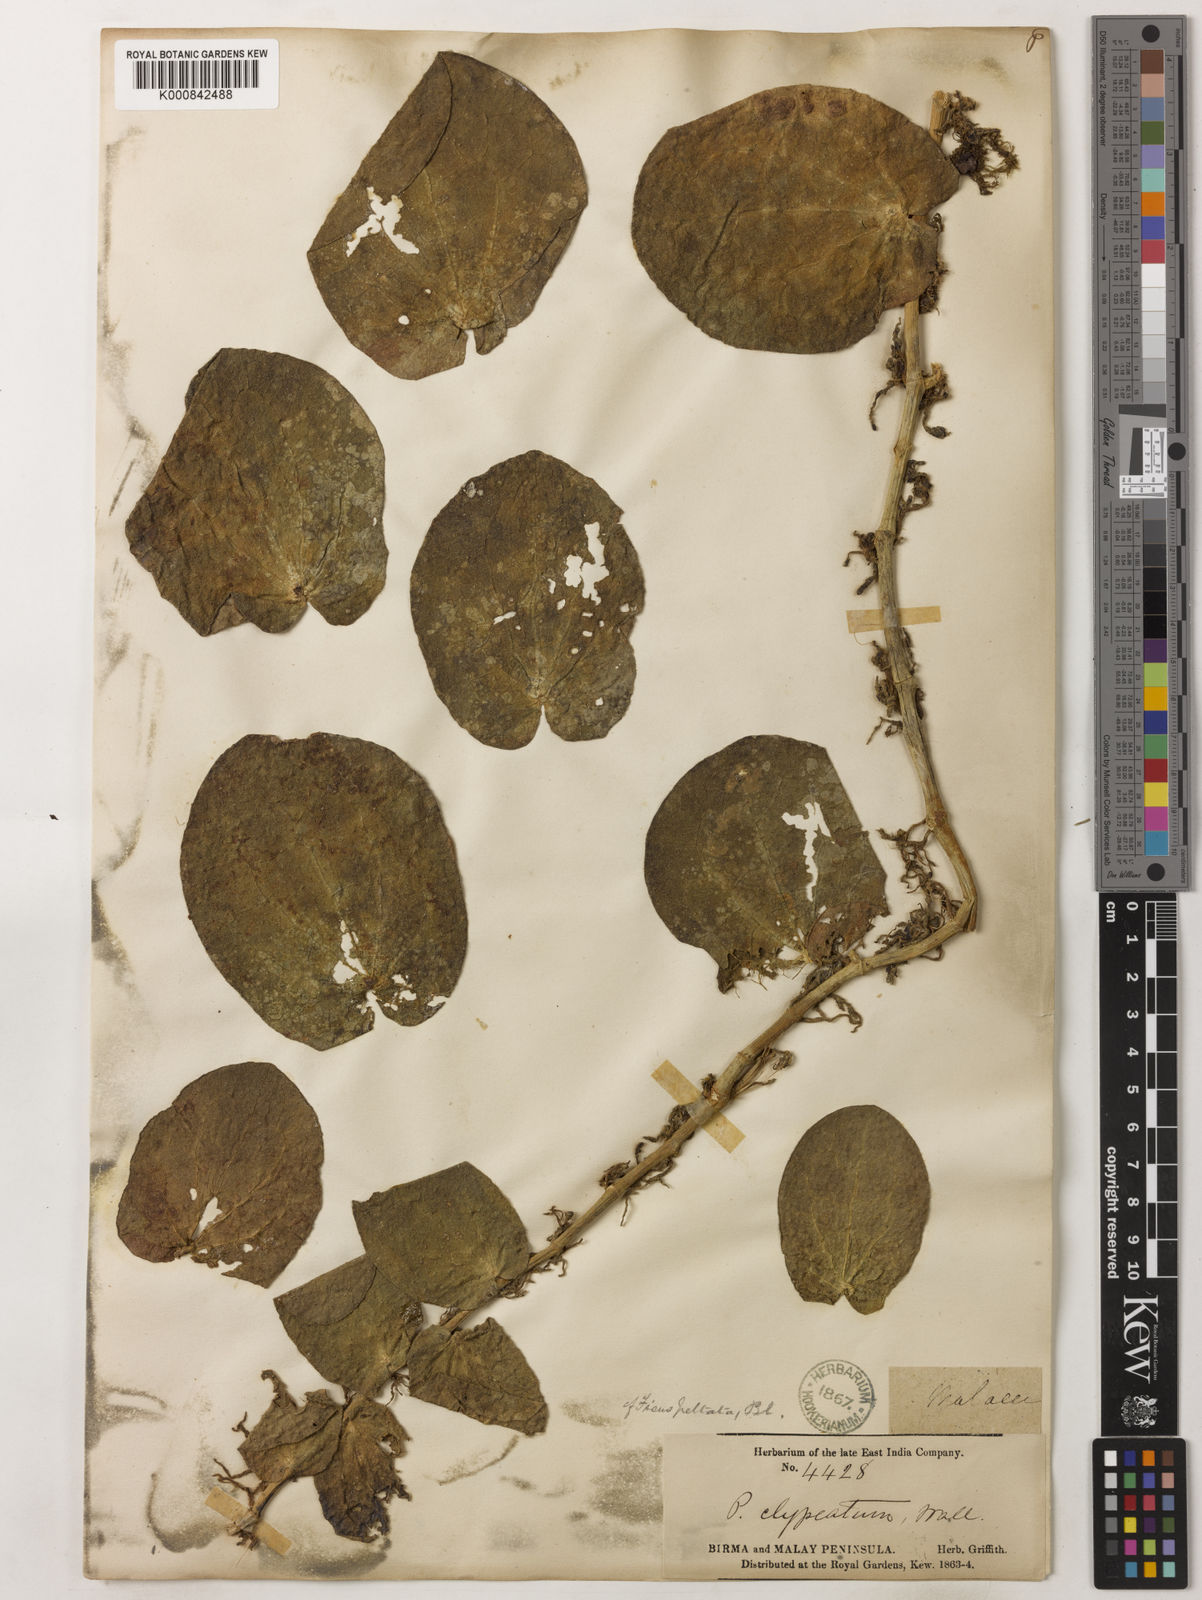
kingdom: Plantae
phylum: Tracheophyta
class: Magnoliopsida
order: Piperales
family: Piperaceae
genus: Piper
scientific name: Piper
